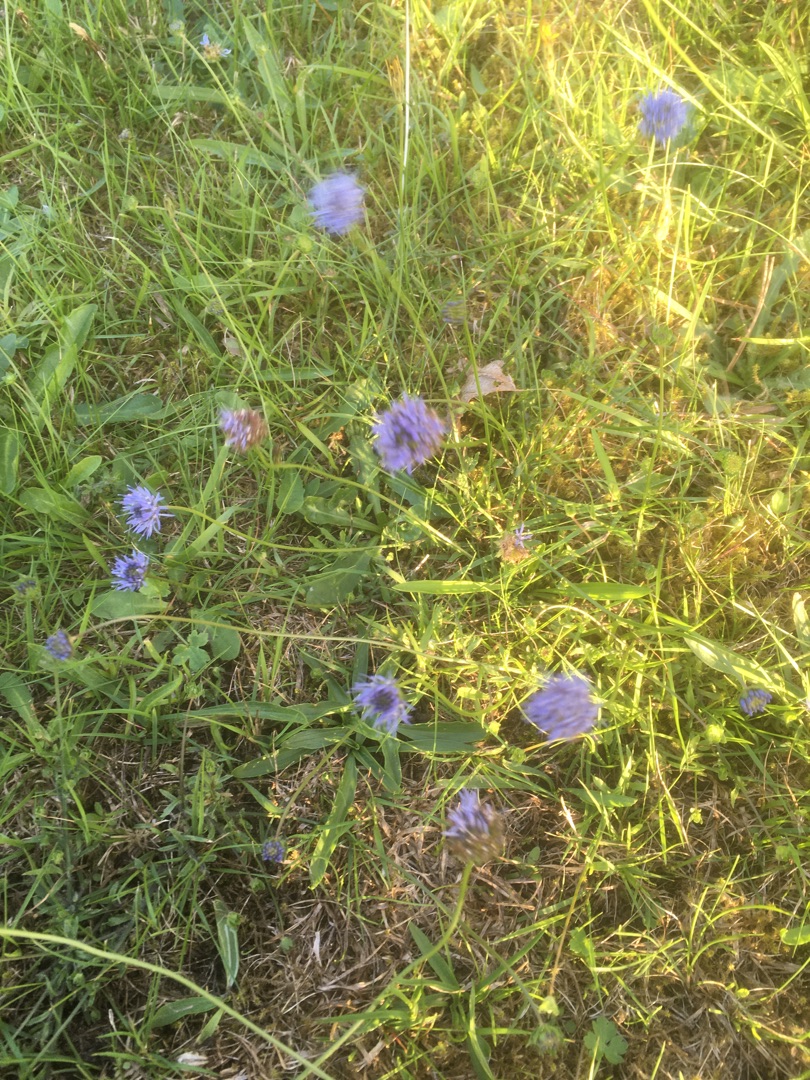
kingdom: Plantae
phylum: Tracheophyta
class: Magnoliopsida
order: Asterales
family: Campanulaceae
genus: Jasione
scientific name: Jasione montana
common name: Blåmunke
